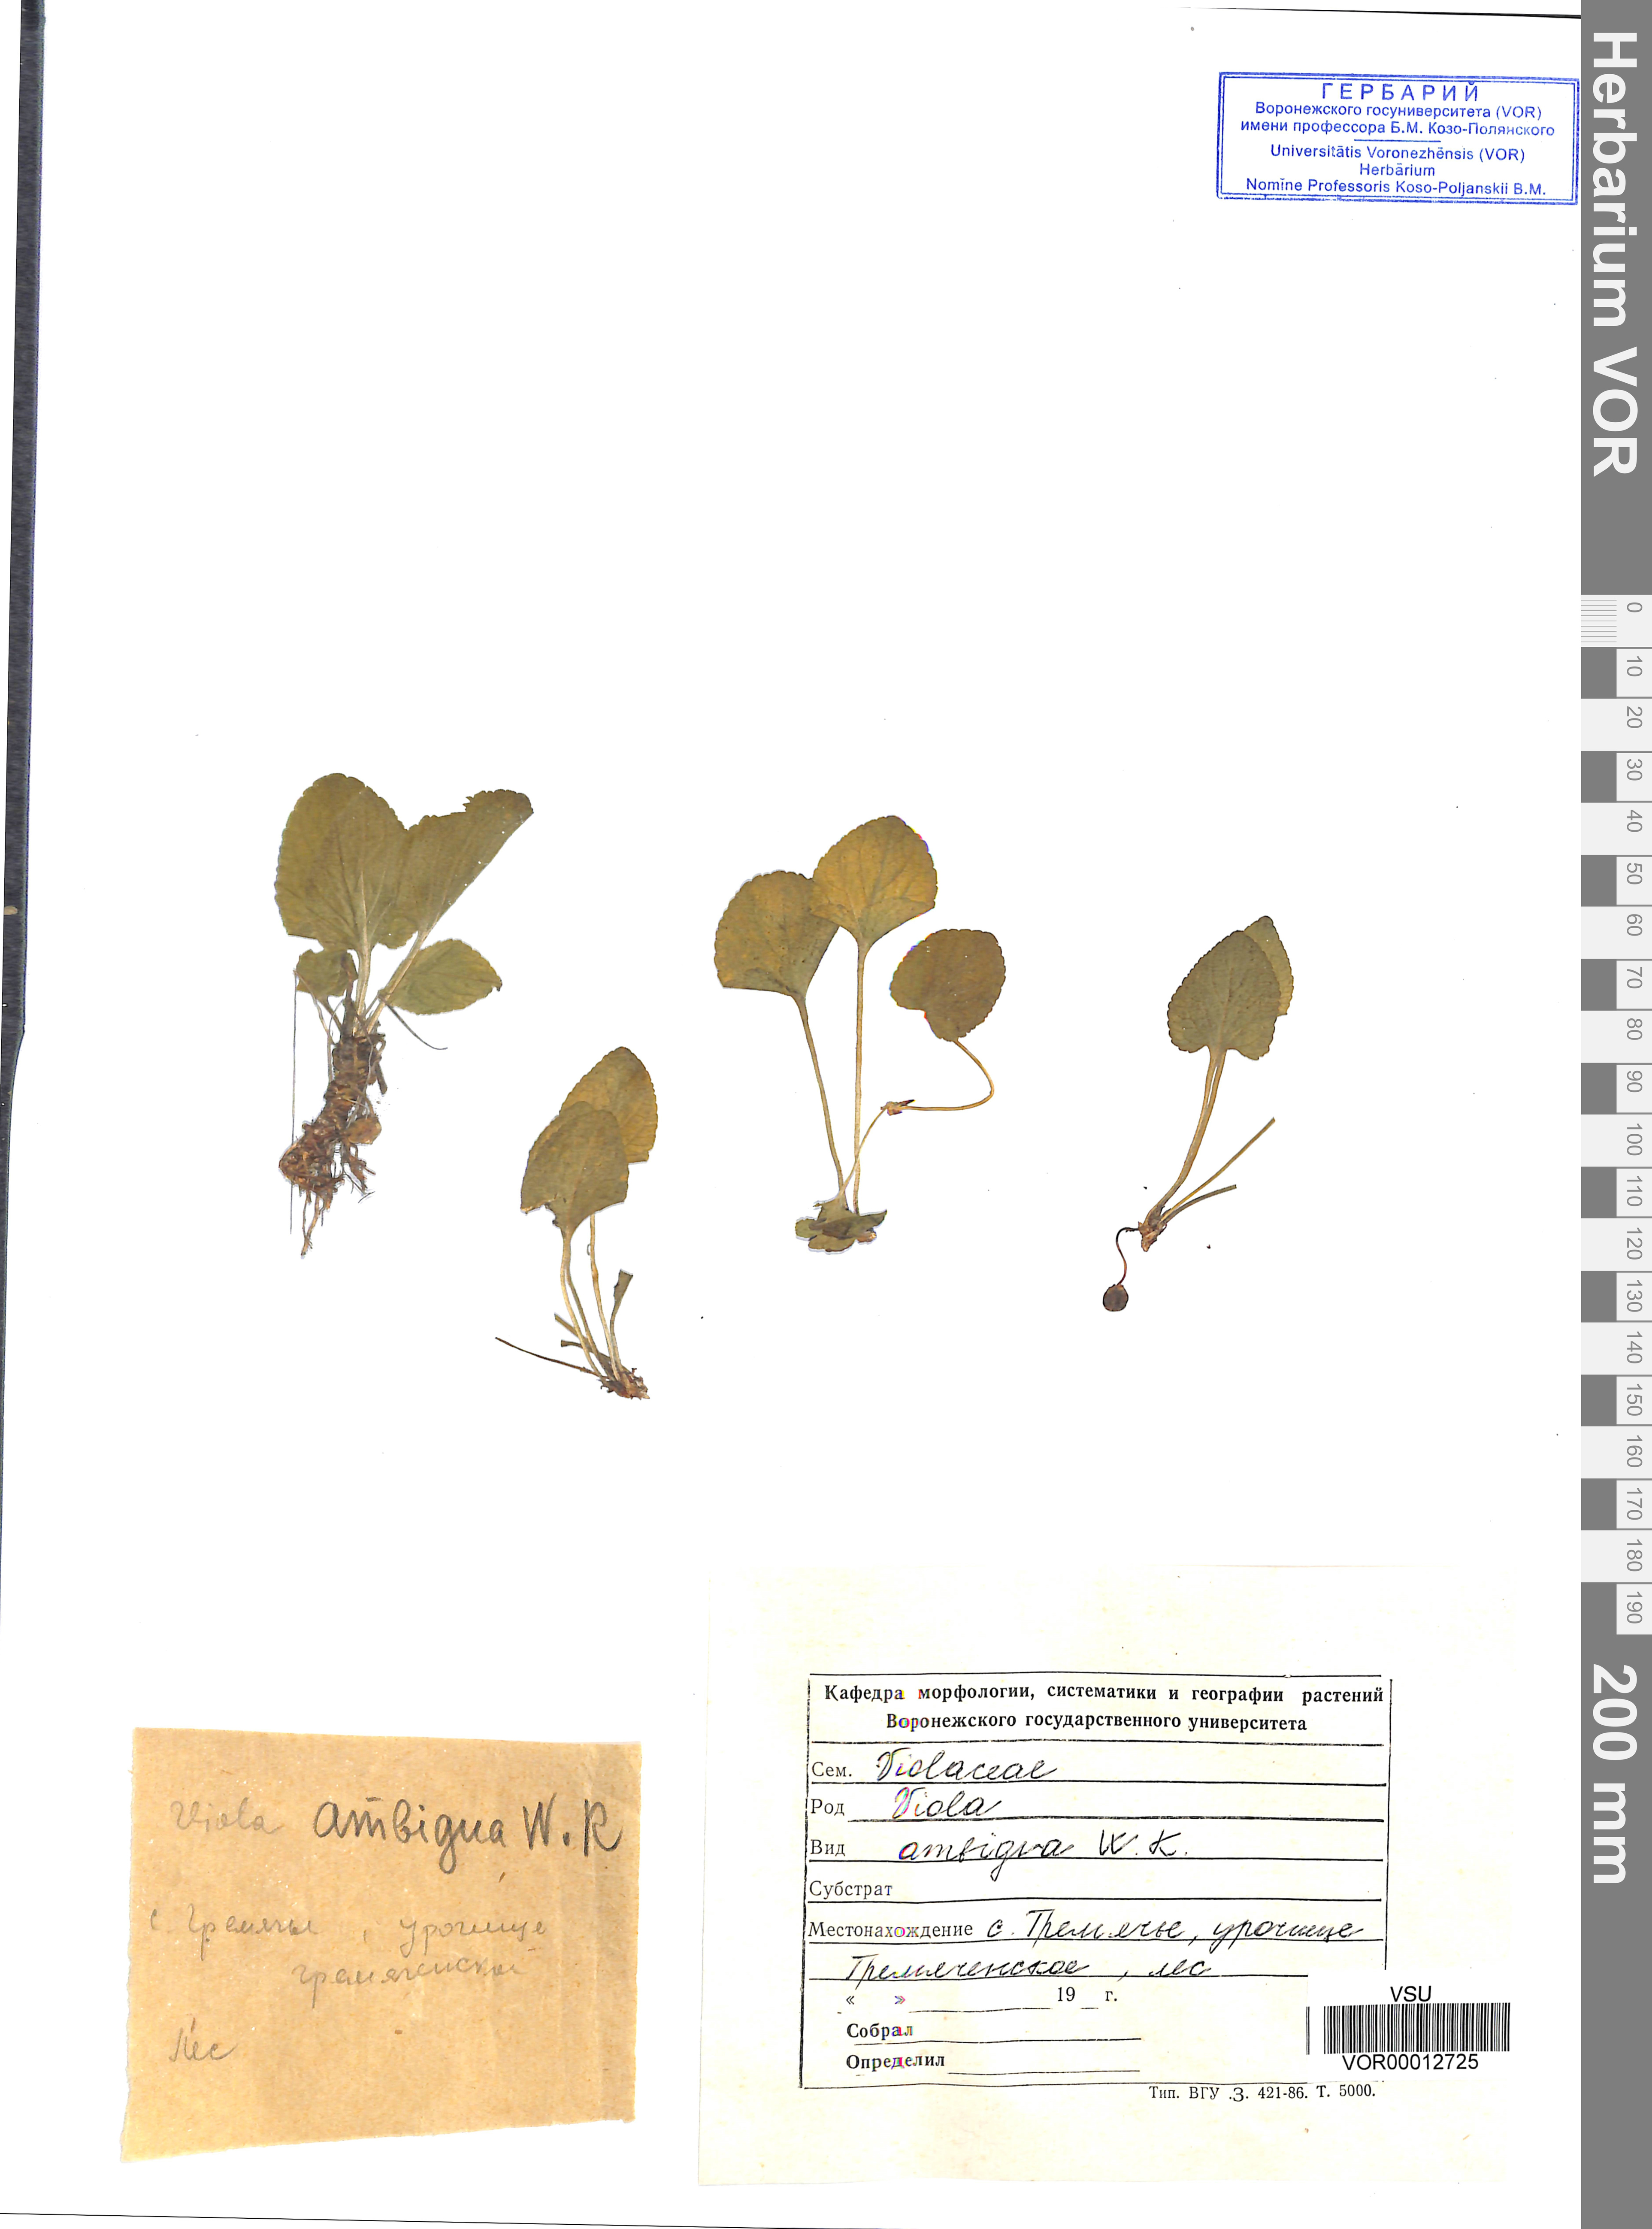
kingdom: Plantae
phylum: Tracheophyta
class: Magnoliopsida
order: Malpighiales
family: Violaceae
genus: Viola
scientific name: Viola ambigua
